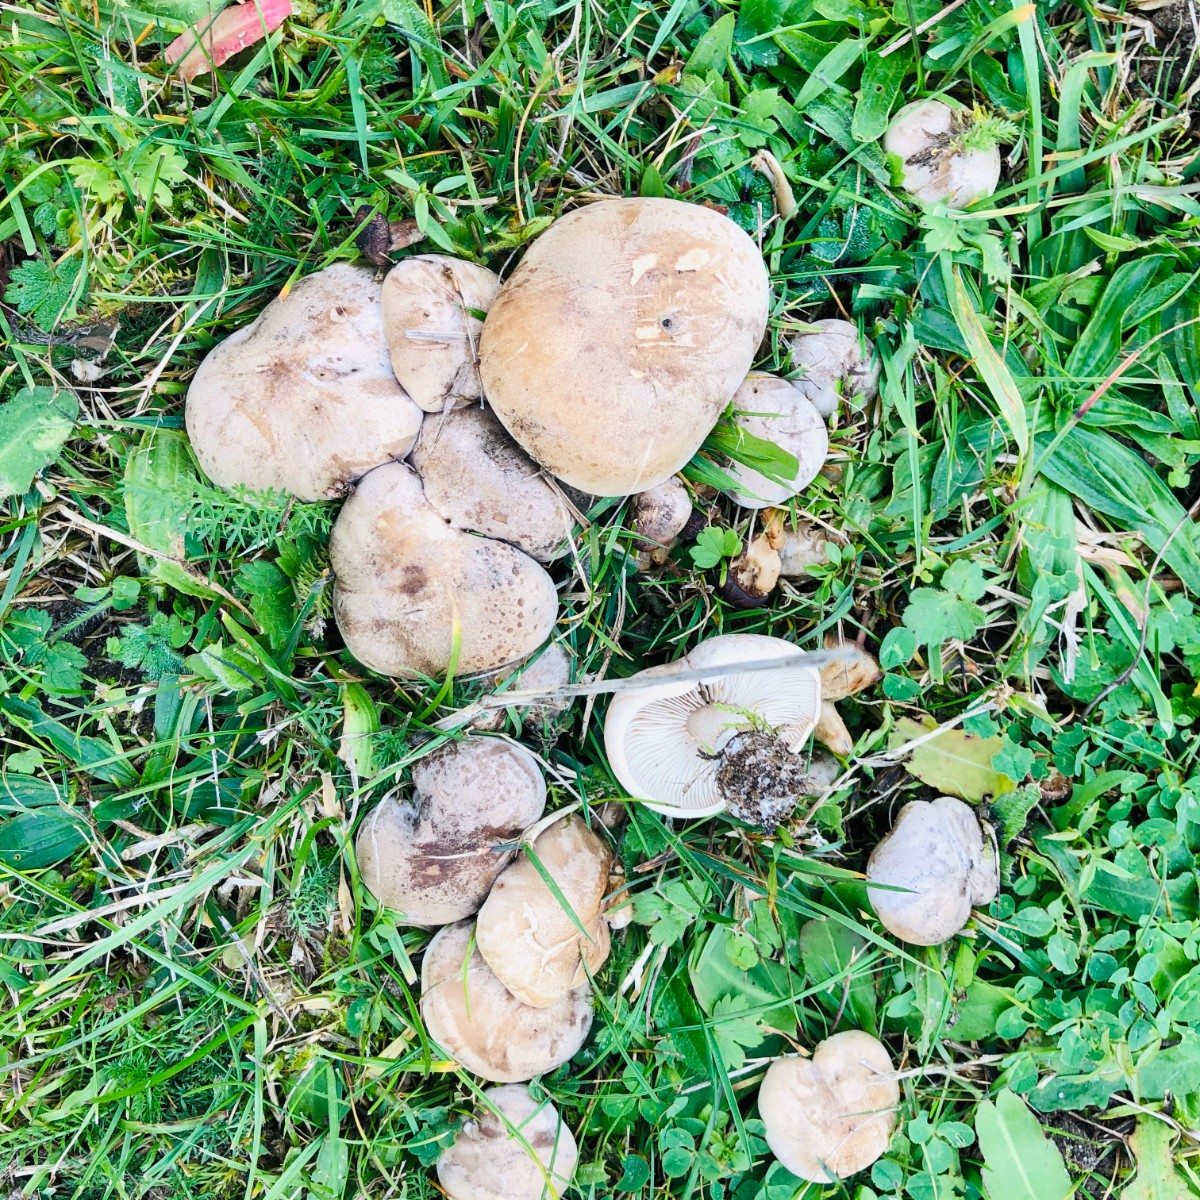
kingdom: Fungi
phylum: Basidiomycota
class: Agaricomycetes
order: Agaricales
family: Tricholomataceae
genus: Lepista
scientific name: Lepista panaeolus
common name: marmoreret hekseringshat
